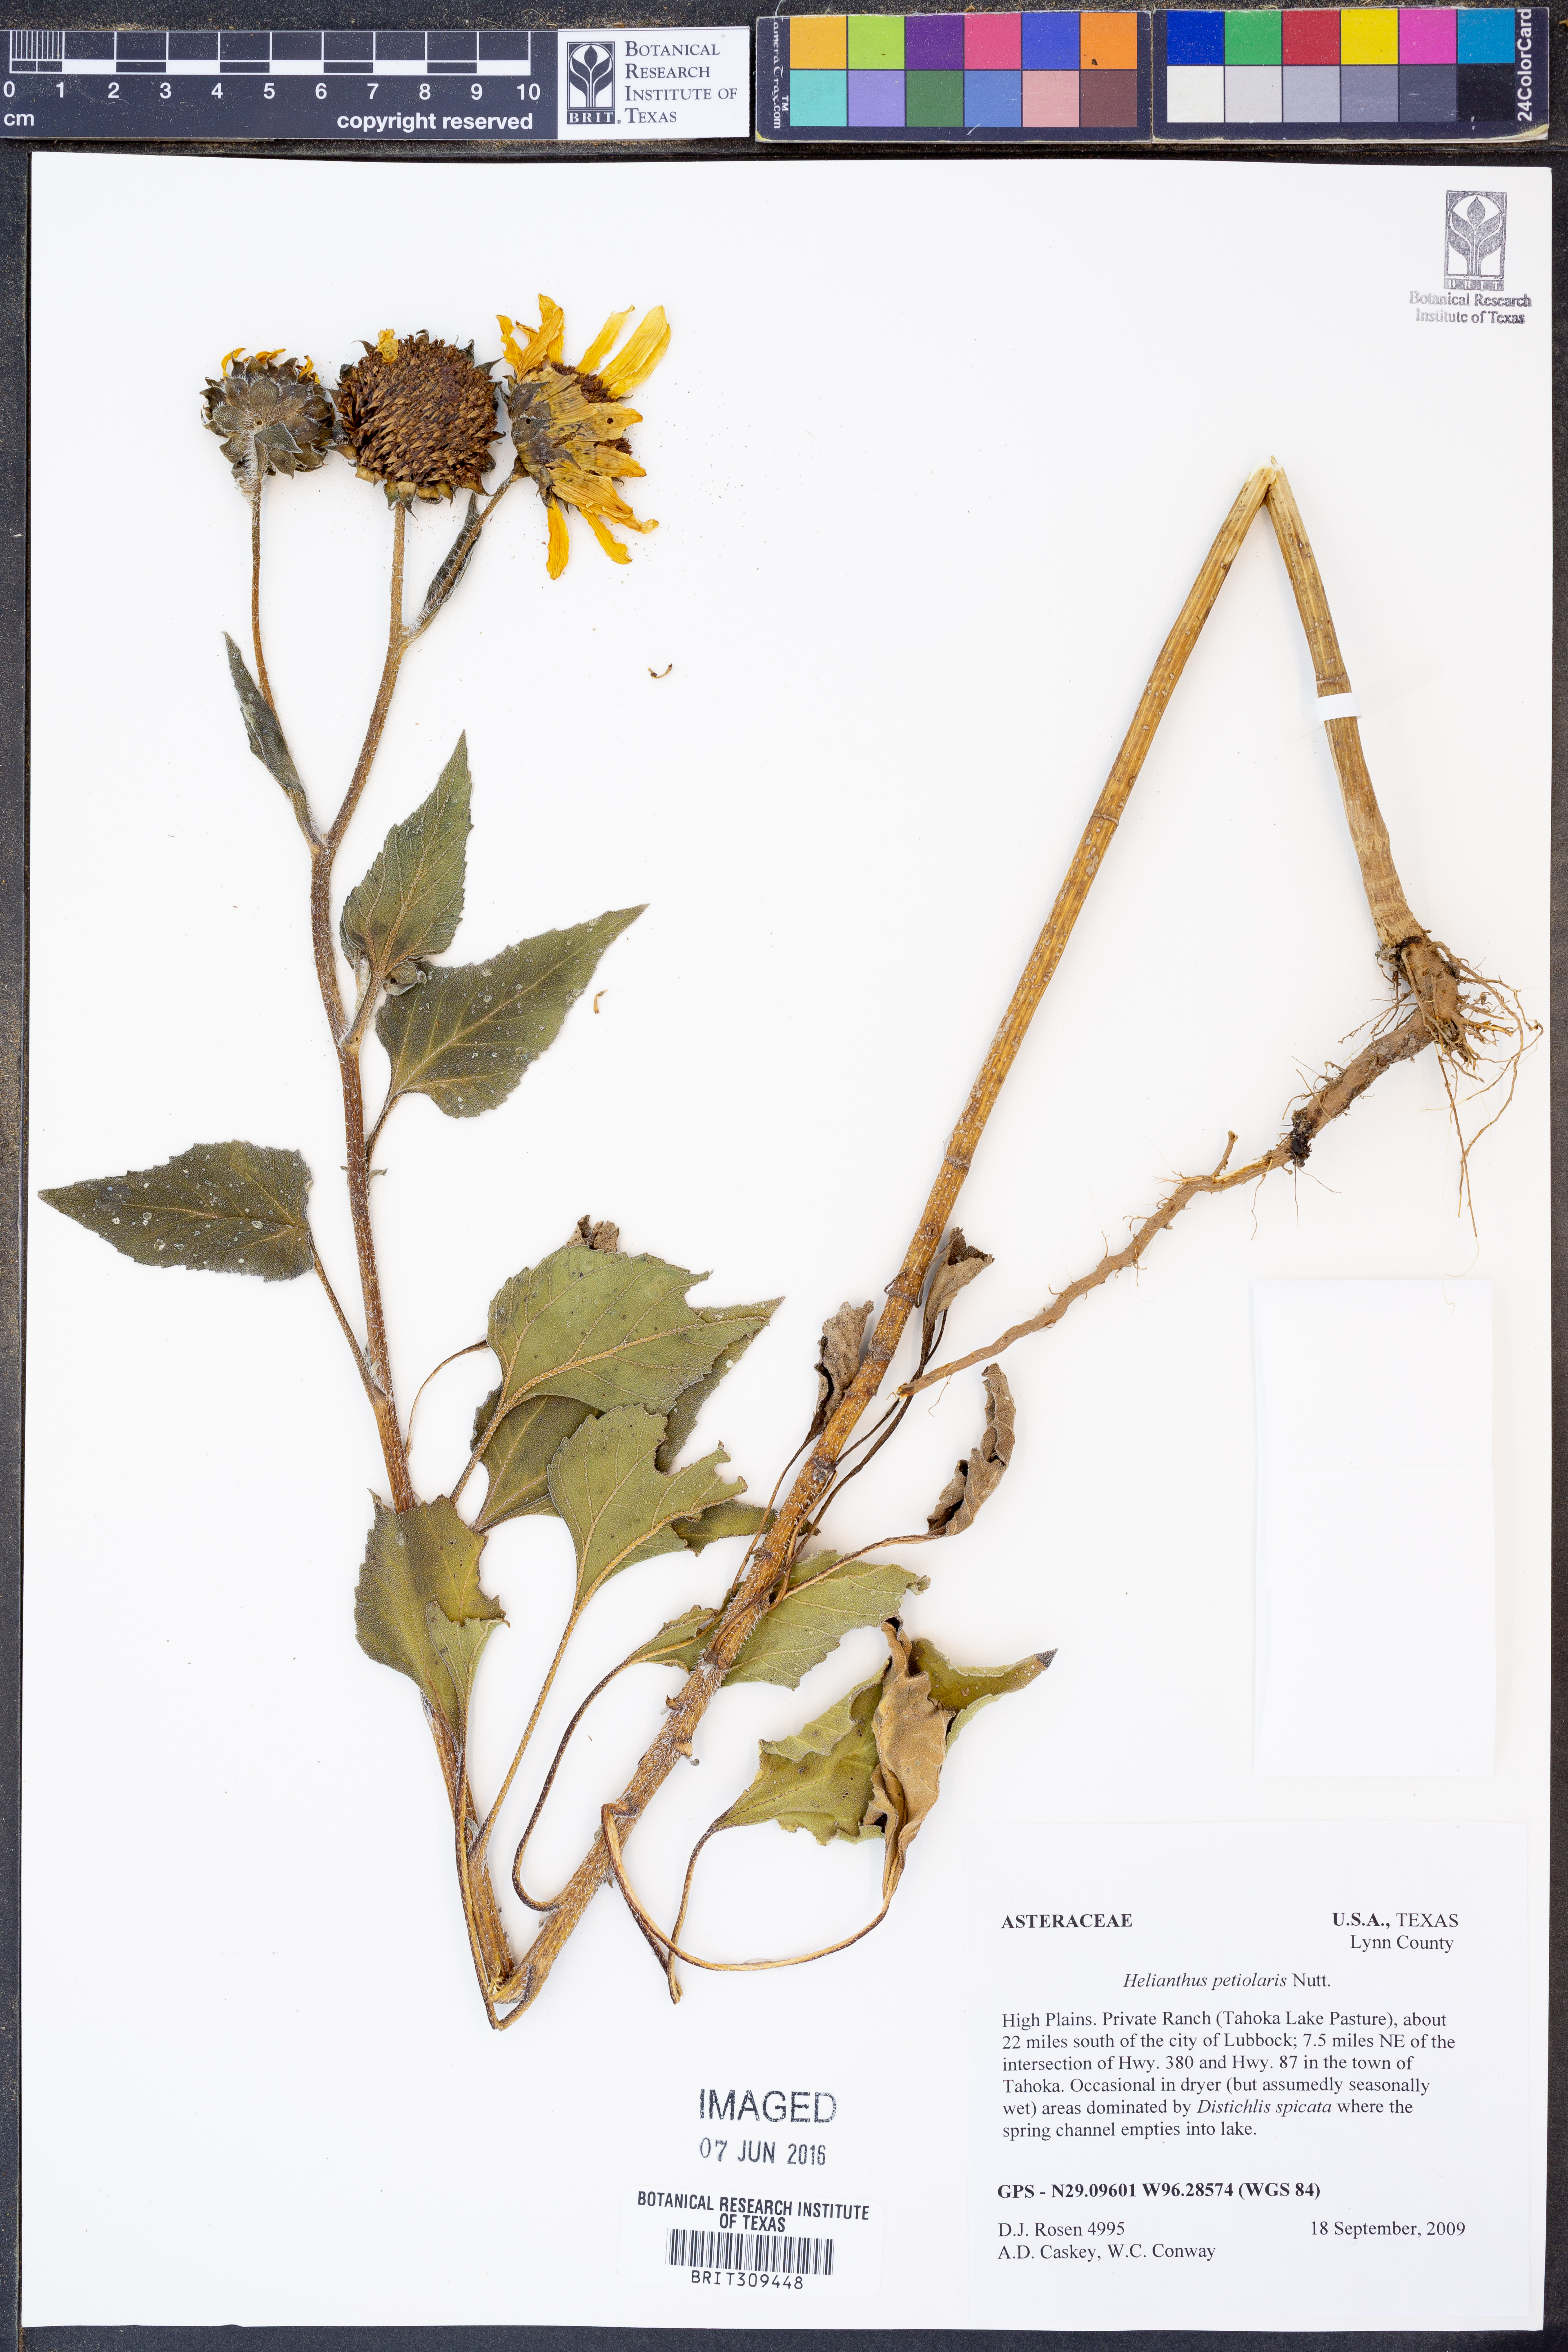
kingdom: Plantae
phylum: Tracheophyta
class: Magnoliopsida
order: Asterales
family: Asteraceae
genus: Helianthus
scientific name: Helianthus petiolaris
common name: Lesser sunflower
